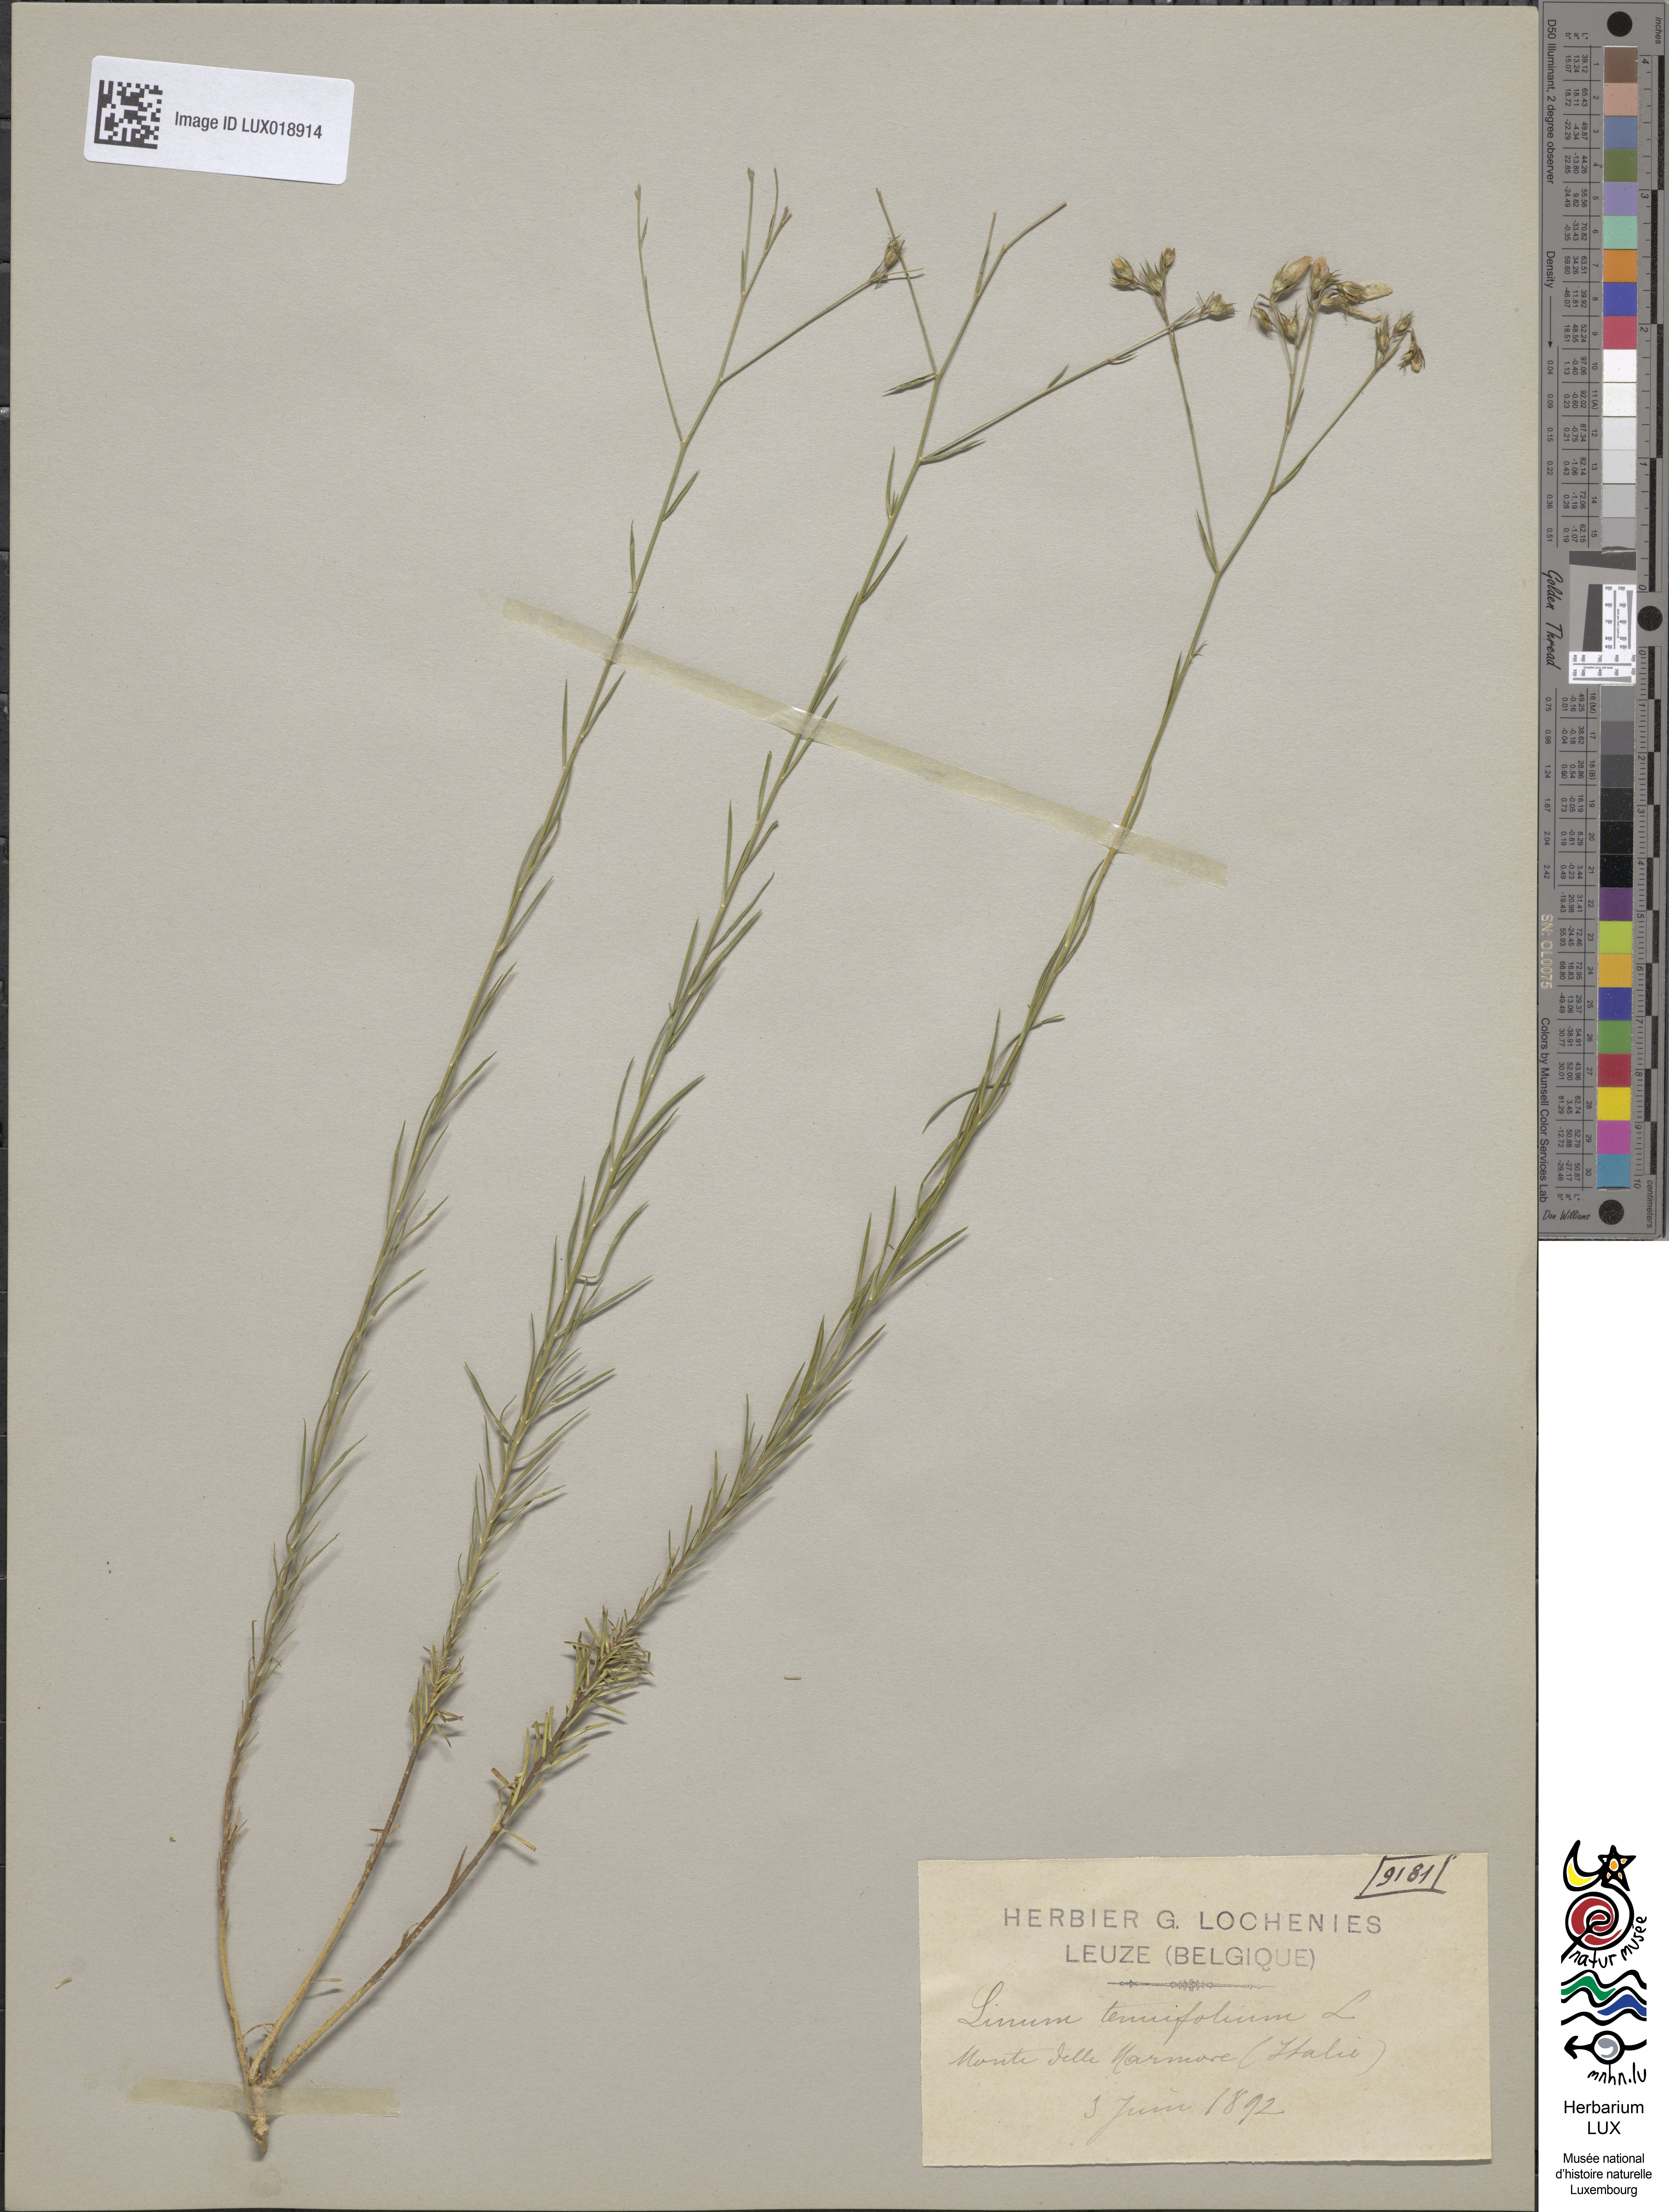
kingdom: Plantae
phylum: Tracheophyta
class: Magnoliopsida
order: Malpighiales
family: Linaceae
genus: Linum
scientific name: Linum tenuifolium
